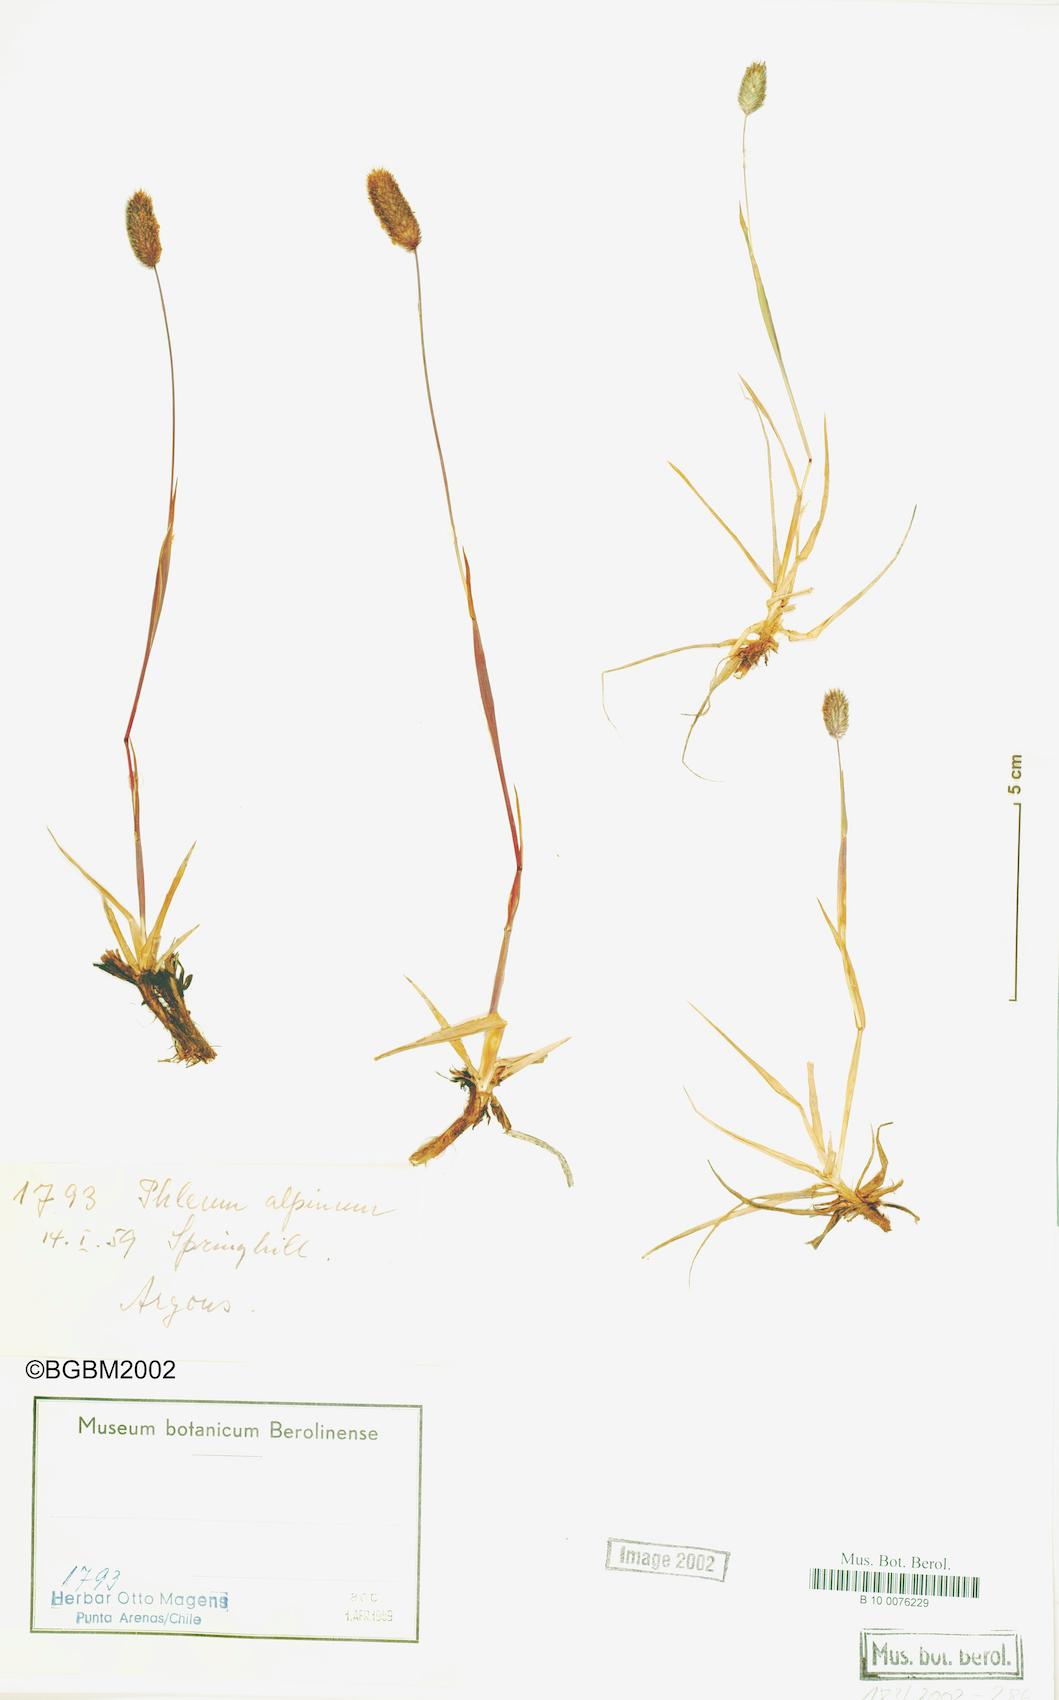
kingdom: Plantae
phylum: Tracheophyta
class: Liliopsida
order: Poales
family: Poaceae
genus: Phleum
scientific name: Phleum alpinum
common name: Alpine cat's-tail
